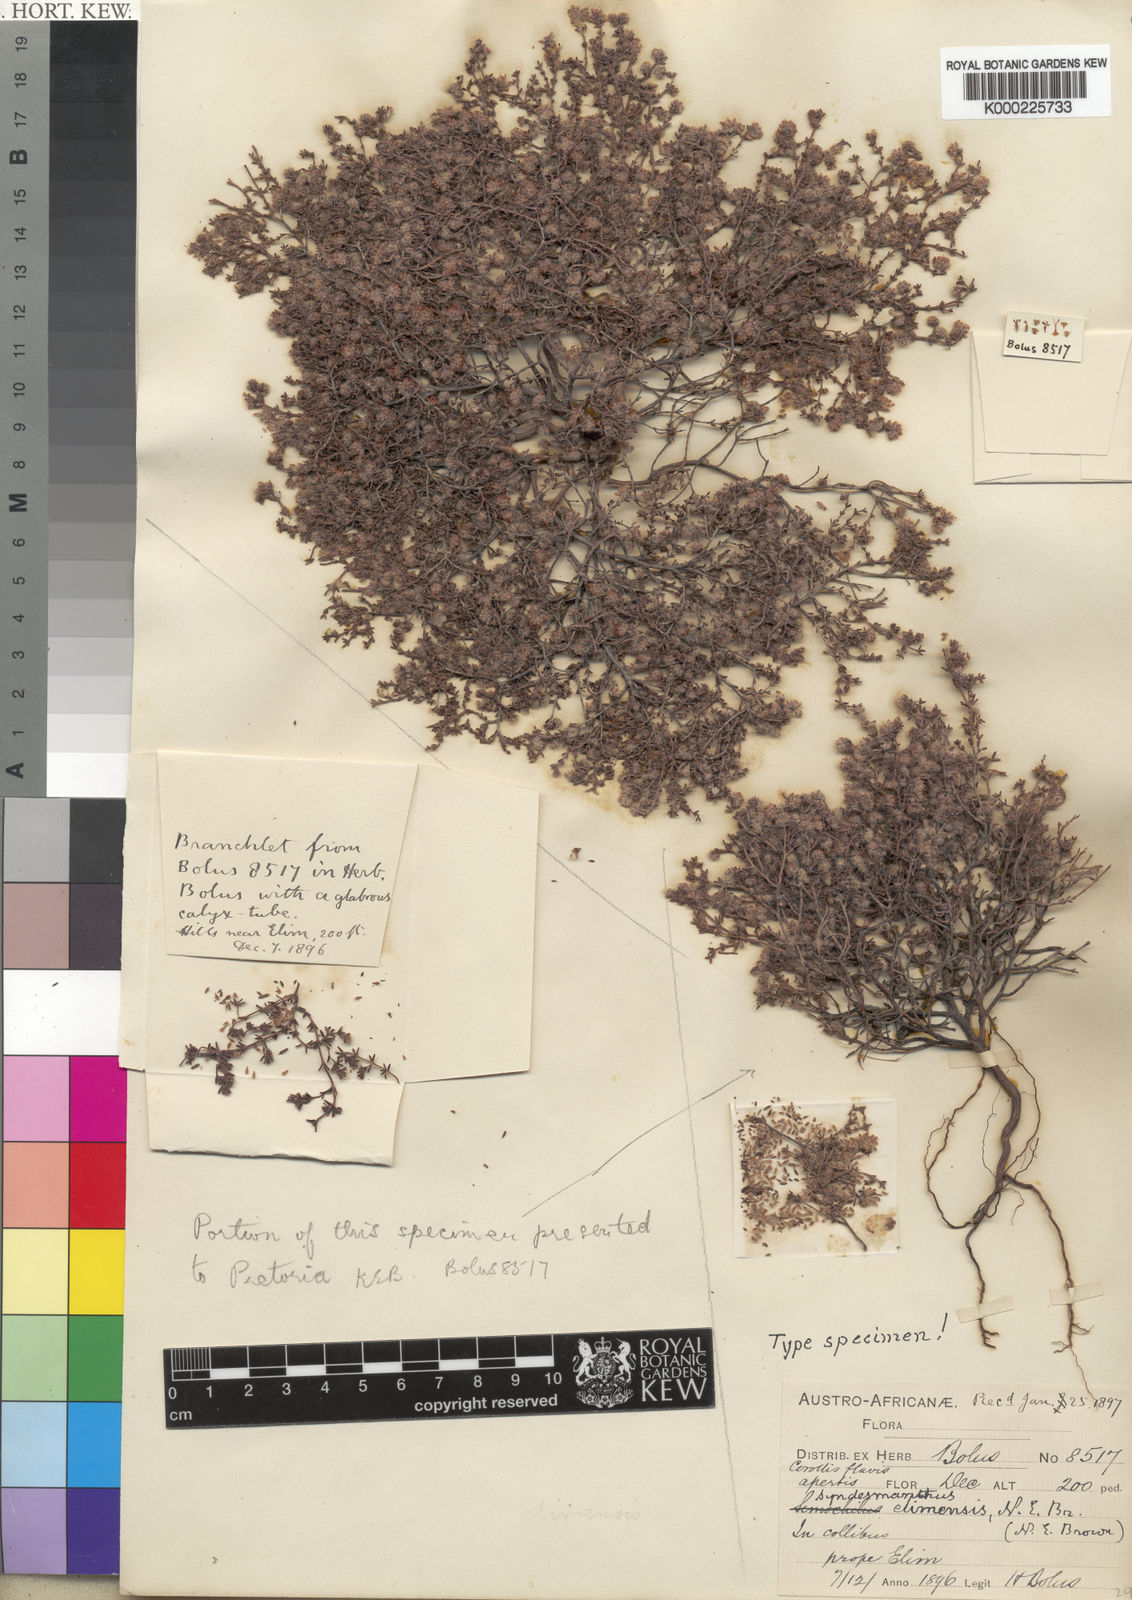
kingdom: Plantae
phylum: Tracheophyta
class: Magnoliopsida
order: Ericales
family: Ericaceae
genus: Erica
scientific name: Erica similis
